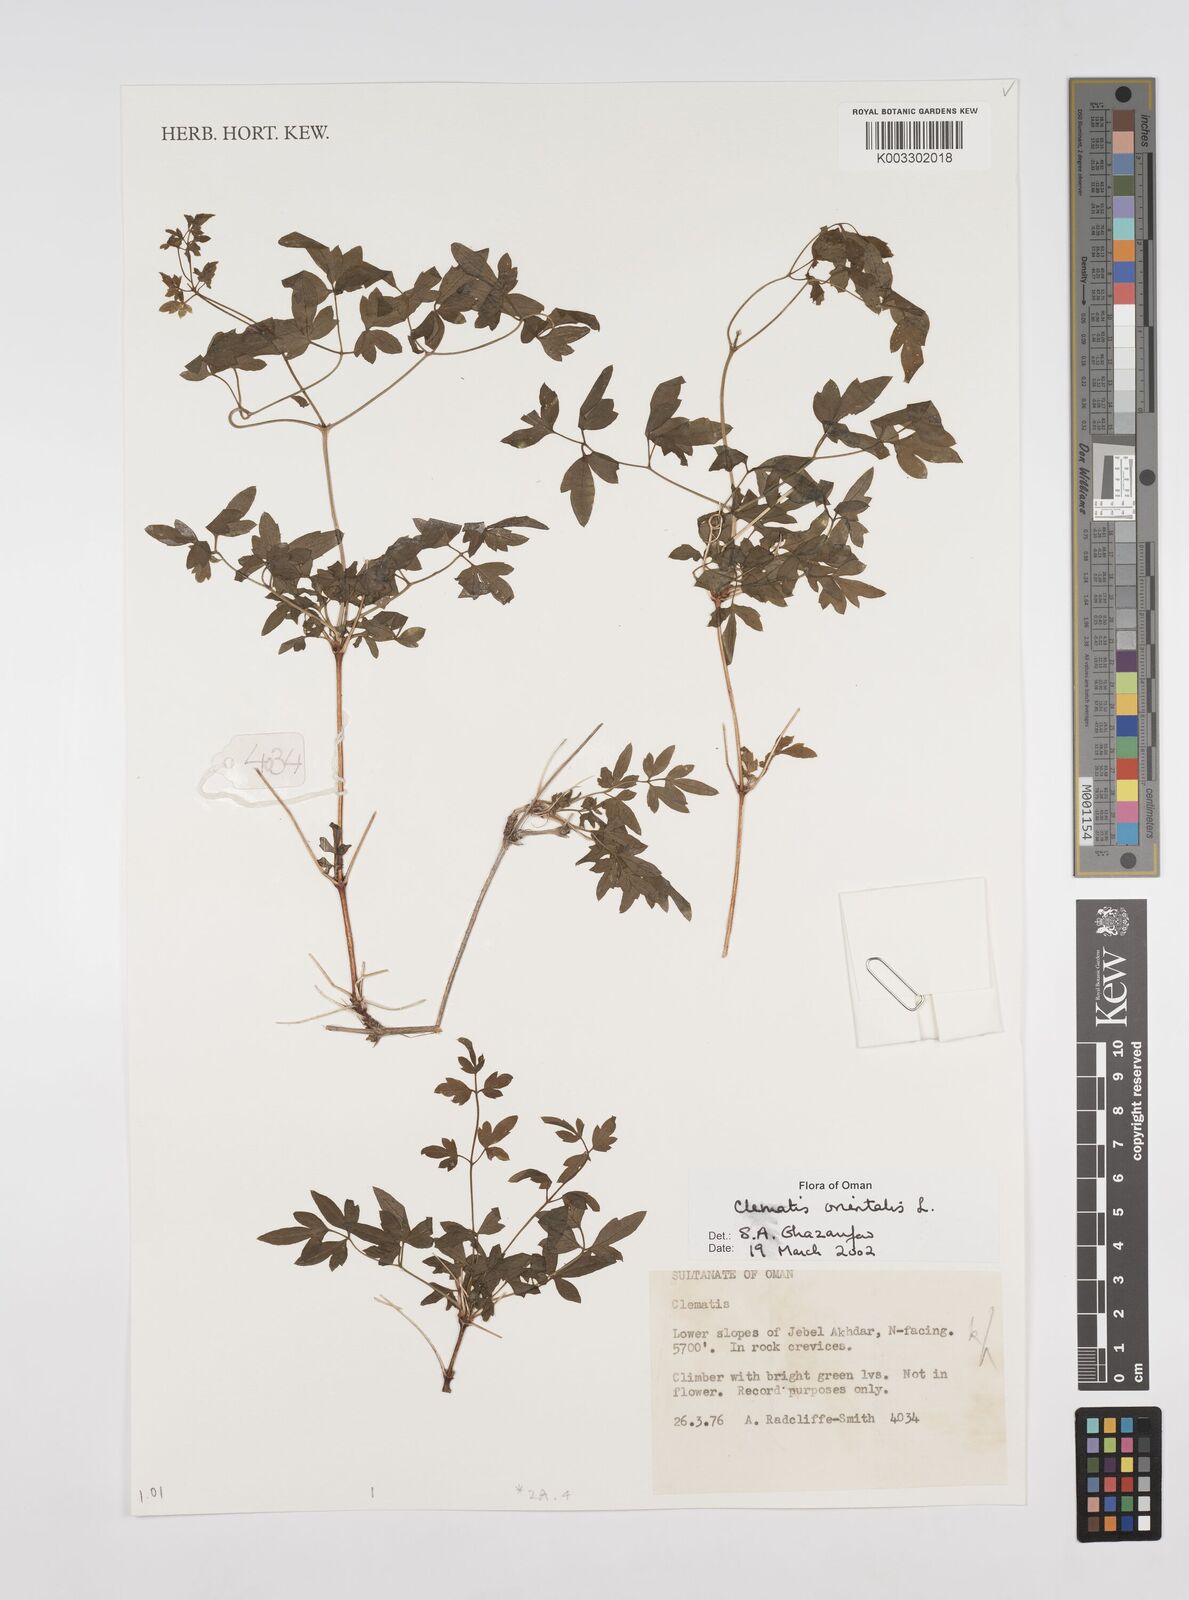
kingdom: Plantae
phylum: Tracheophyta
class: Magnoliopsida
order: Ranunculales
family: Ranunculaceae
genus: Clematis
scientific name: Clematis orientalis
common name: Oriental virgin's-bower
